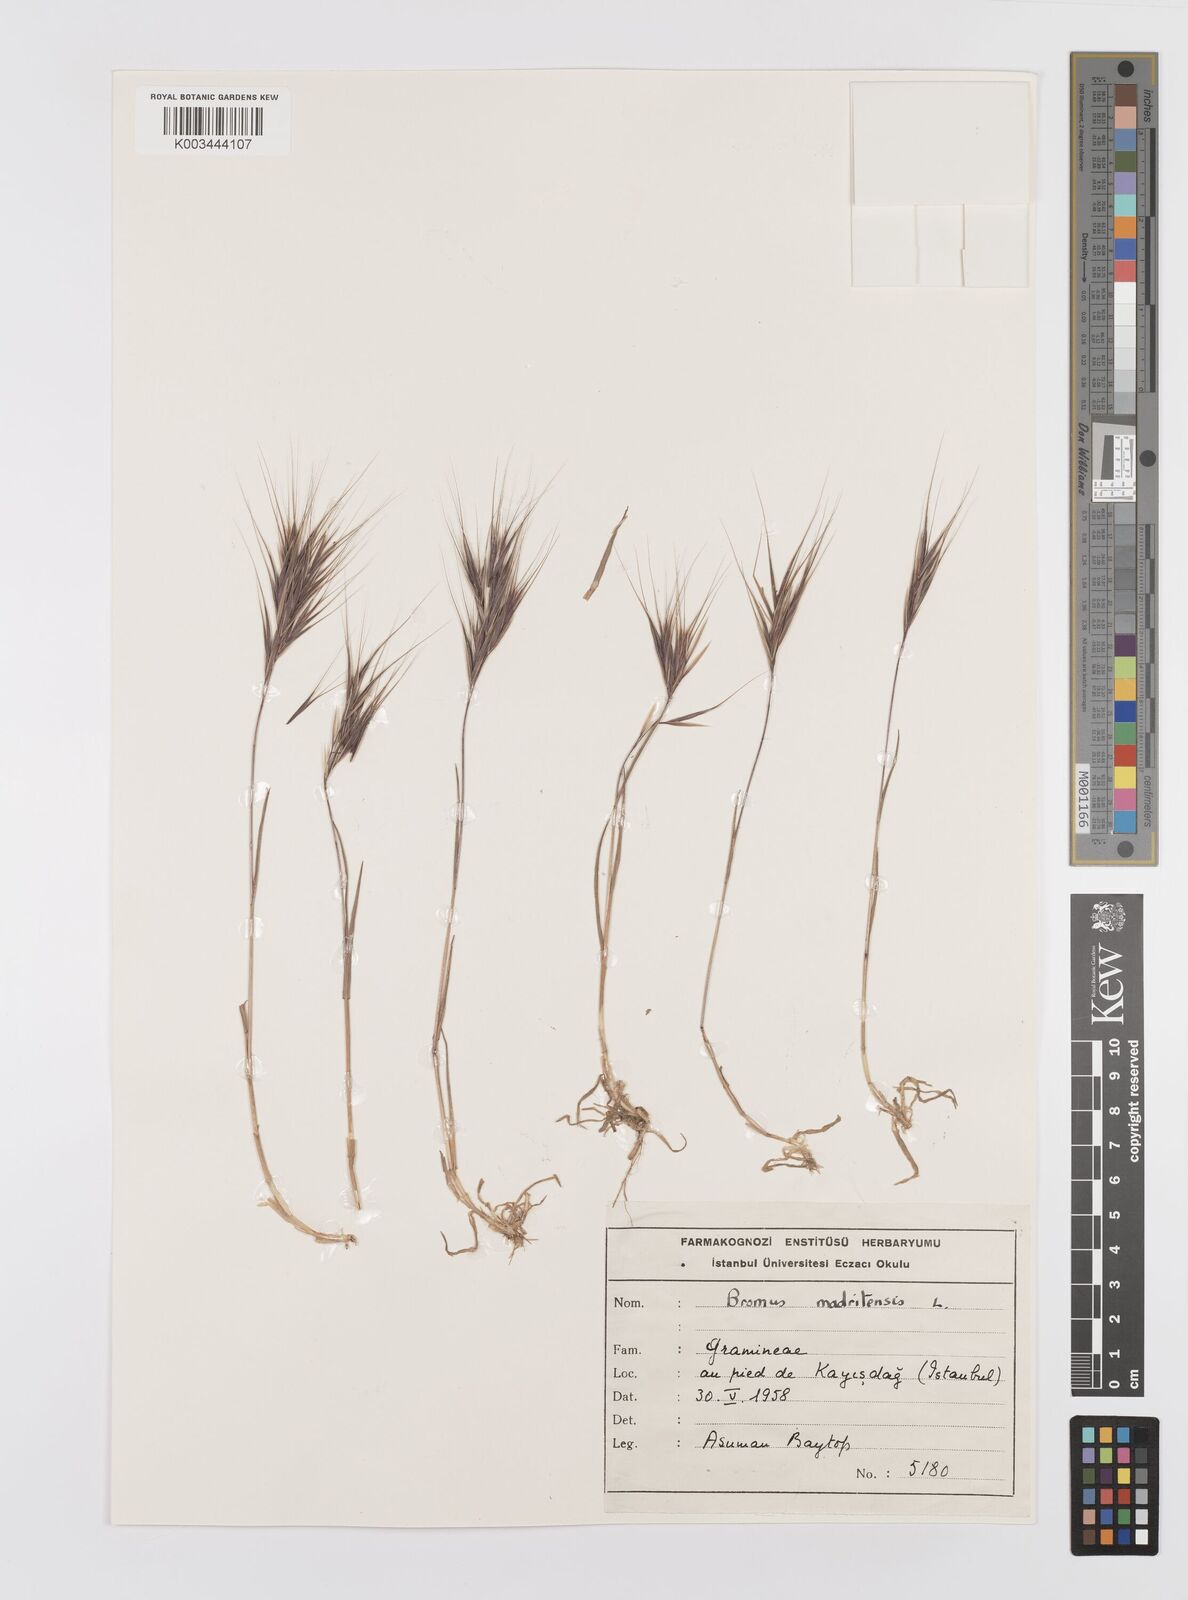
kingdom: Plantae
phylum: Tracheophyta
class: Liliopsida
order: Poales
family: Poaceae
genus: Bromus
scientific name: Bromus madritensis
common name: Compact brome
